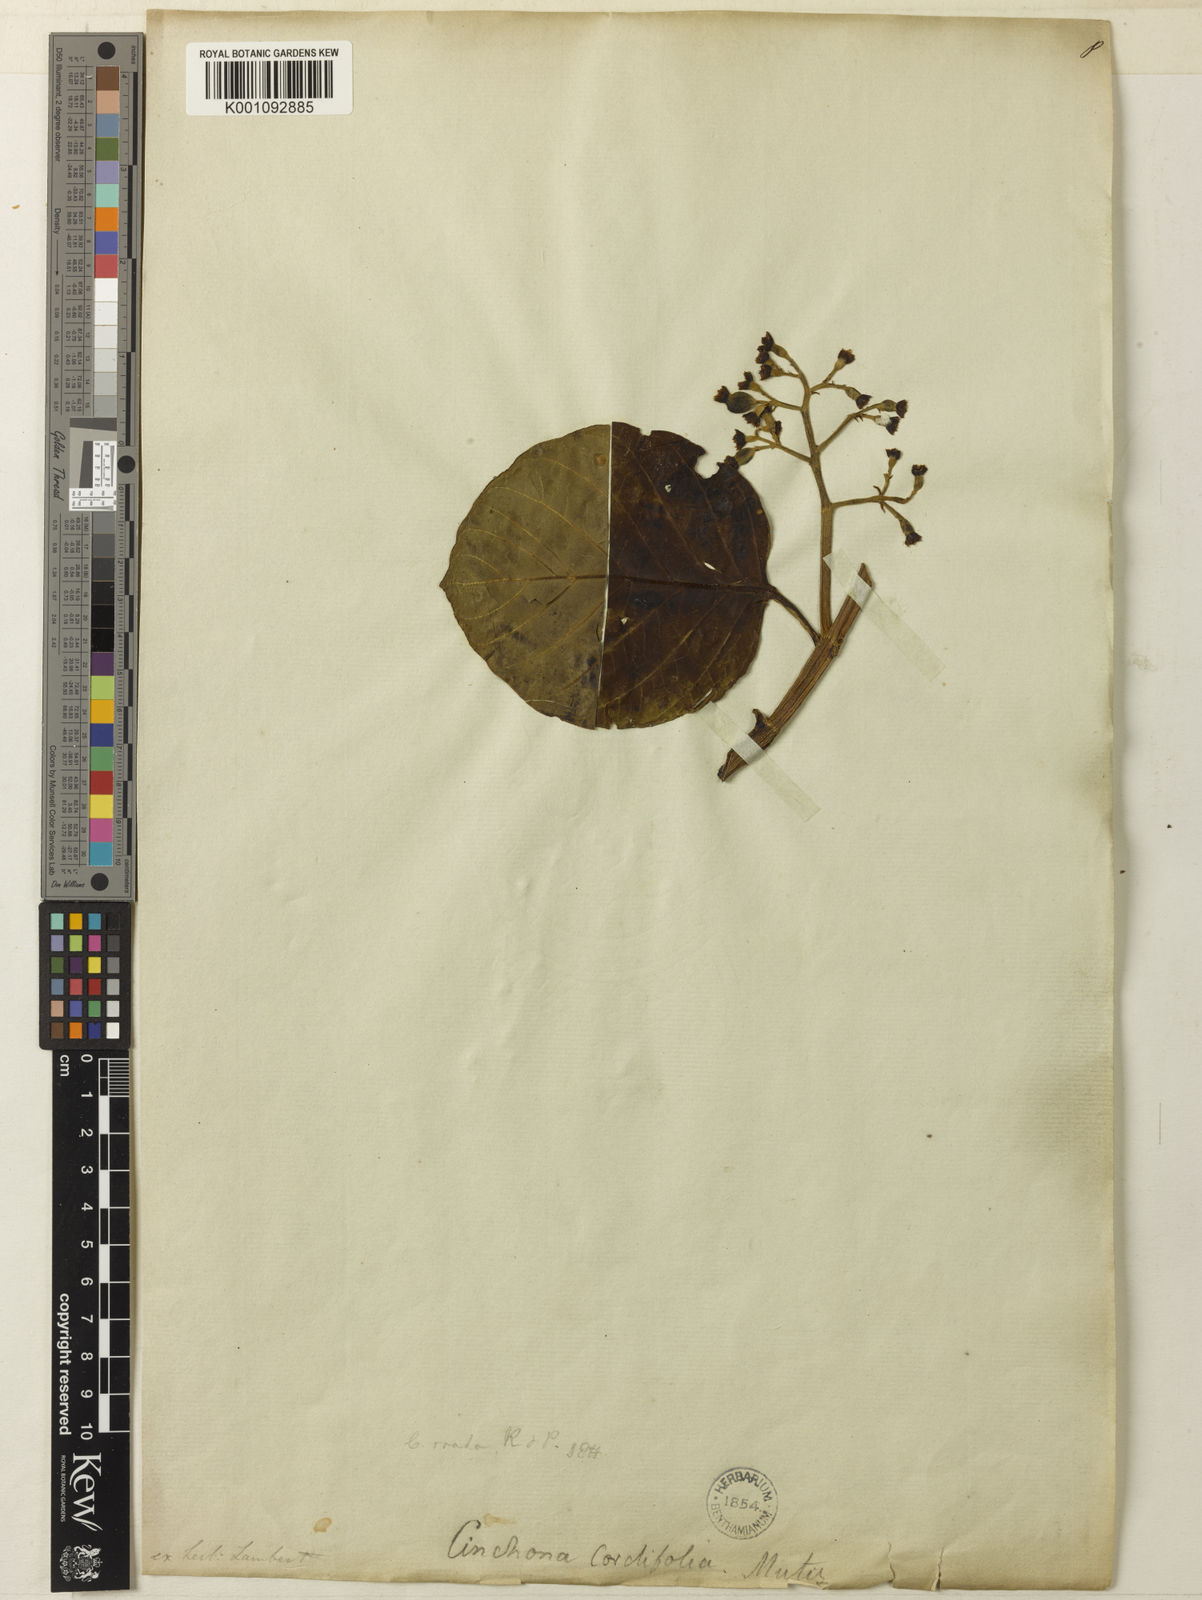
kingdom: Plantae
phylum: Tracheophyta
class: Magnoliopsida
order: Gentianales
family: Rubiaceae
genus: Cinchona
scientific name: Cinchona
